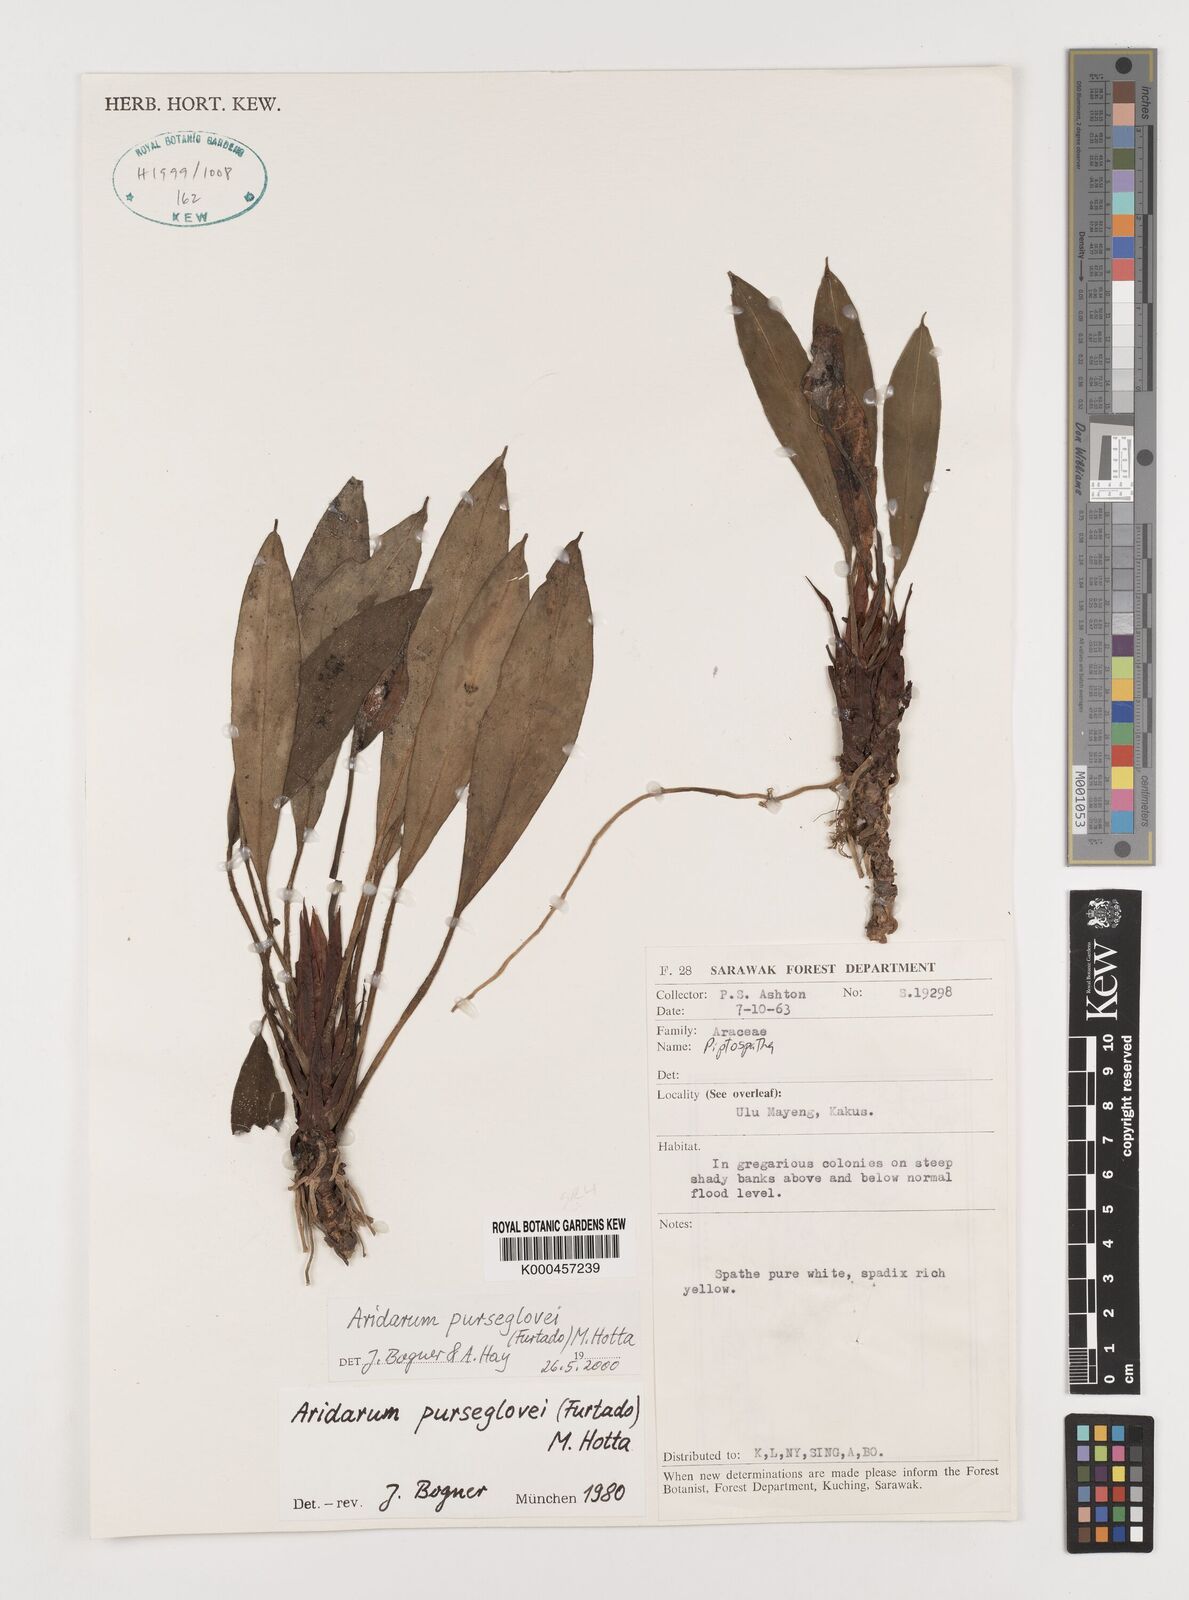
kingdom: Plantae
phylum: Tracheophyta
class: Liliopsida
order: Alismatales
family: Araceae
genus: Burttianthus
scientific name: Burttianthus purseglovei
